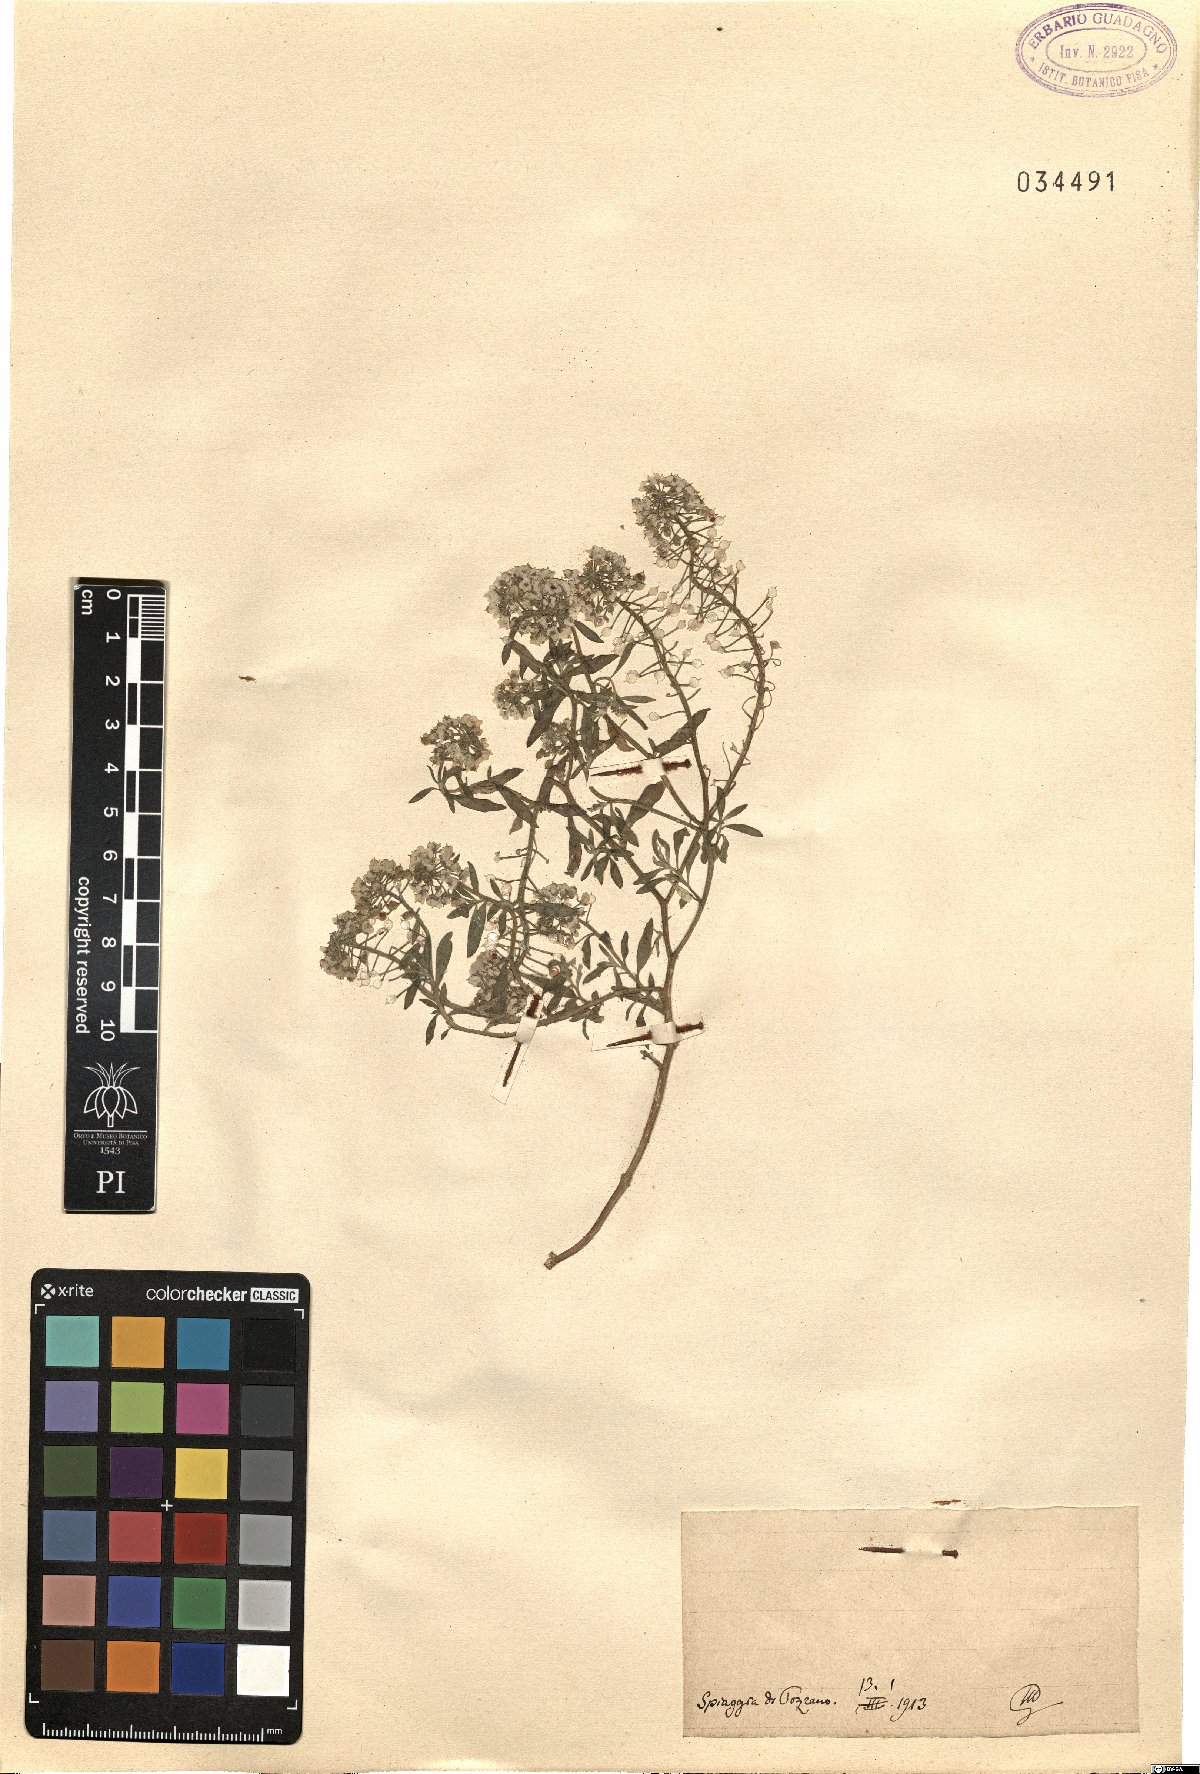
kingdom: Plantae
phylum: Tracheophyta
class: Magnoliopsida
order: Brassicales
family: Brassicaceae
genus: Alyssum
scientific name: Alyssum
